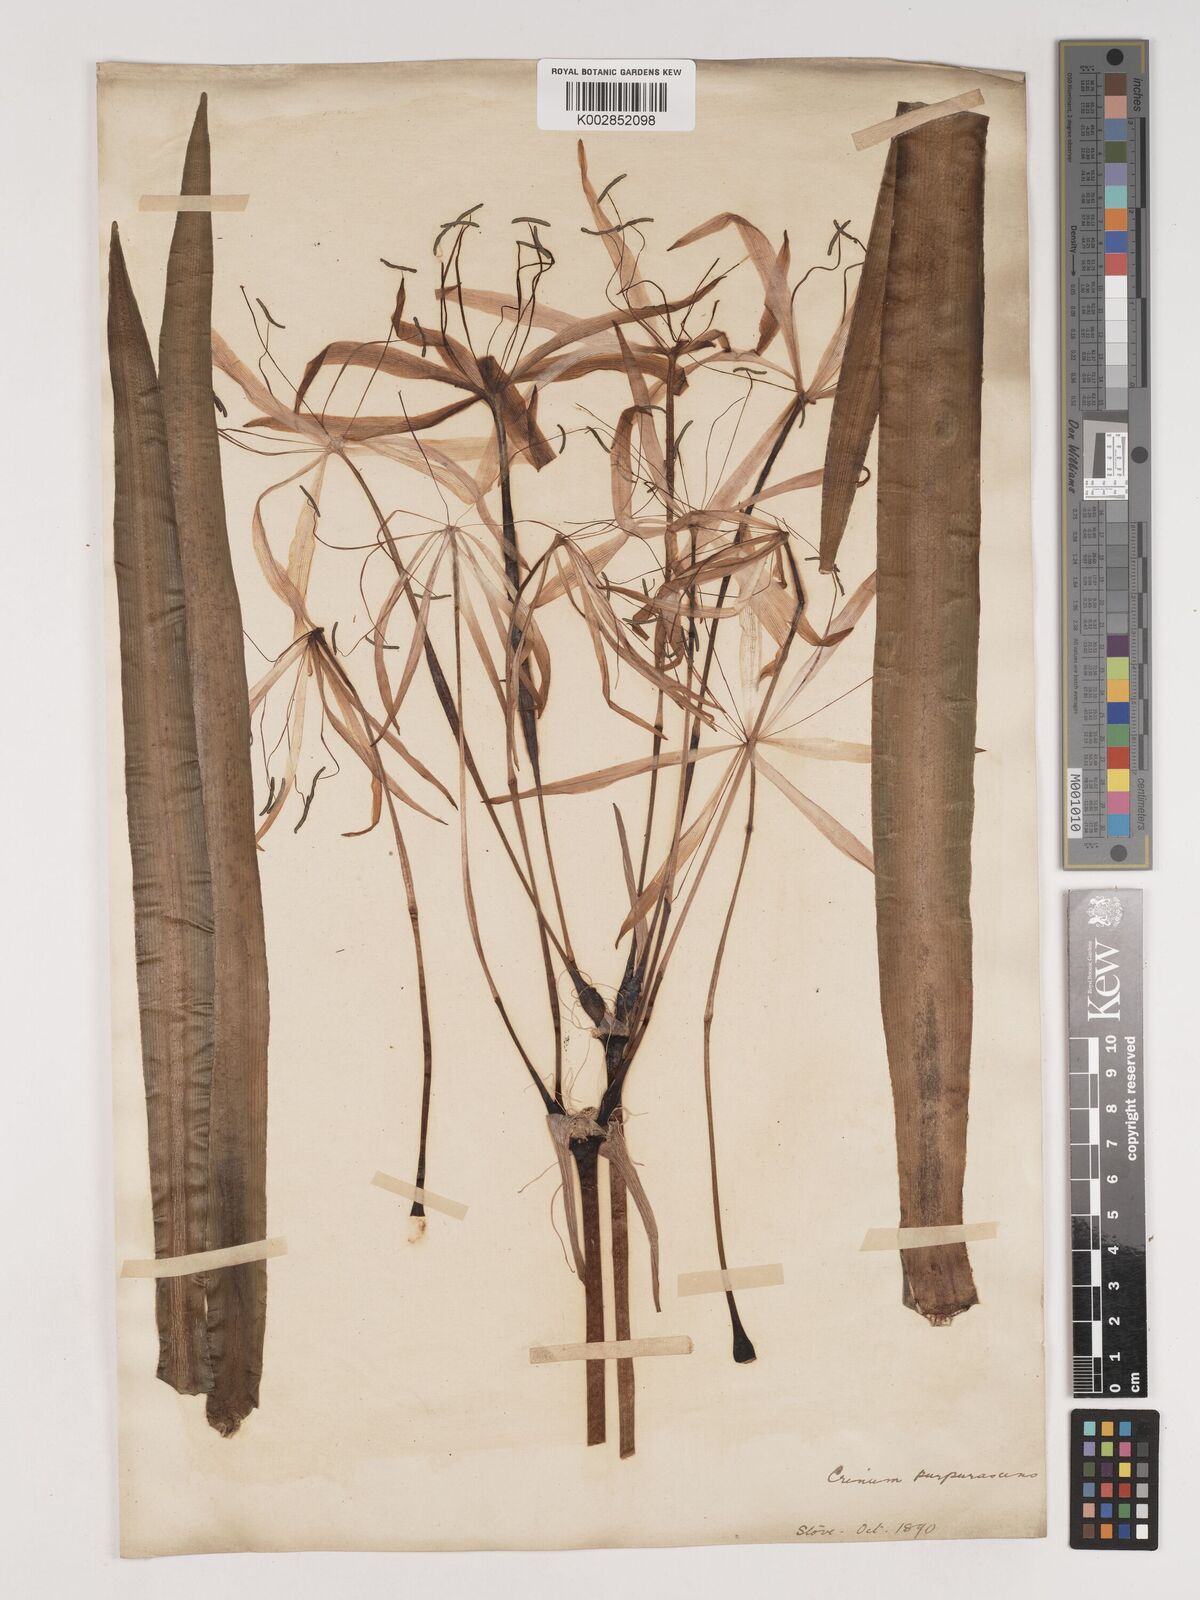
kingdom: Plantae
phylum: Tracheophyta
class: Liliopsida
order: Asparagales
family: Amaryllidaceae
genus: Crinum
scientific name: Crinum purpurascens
